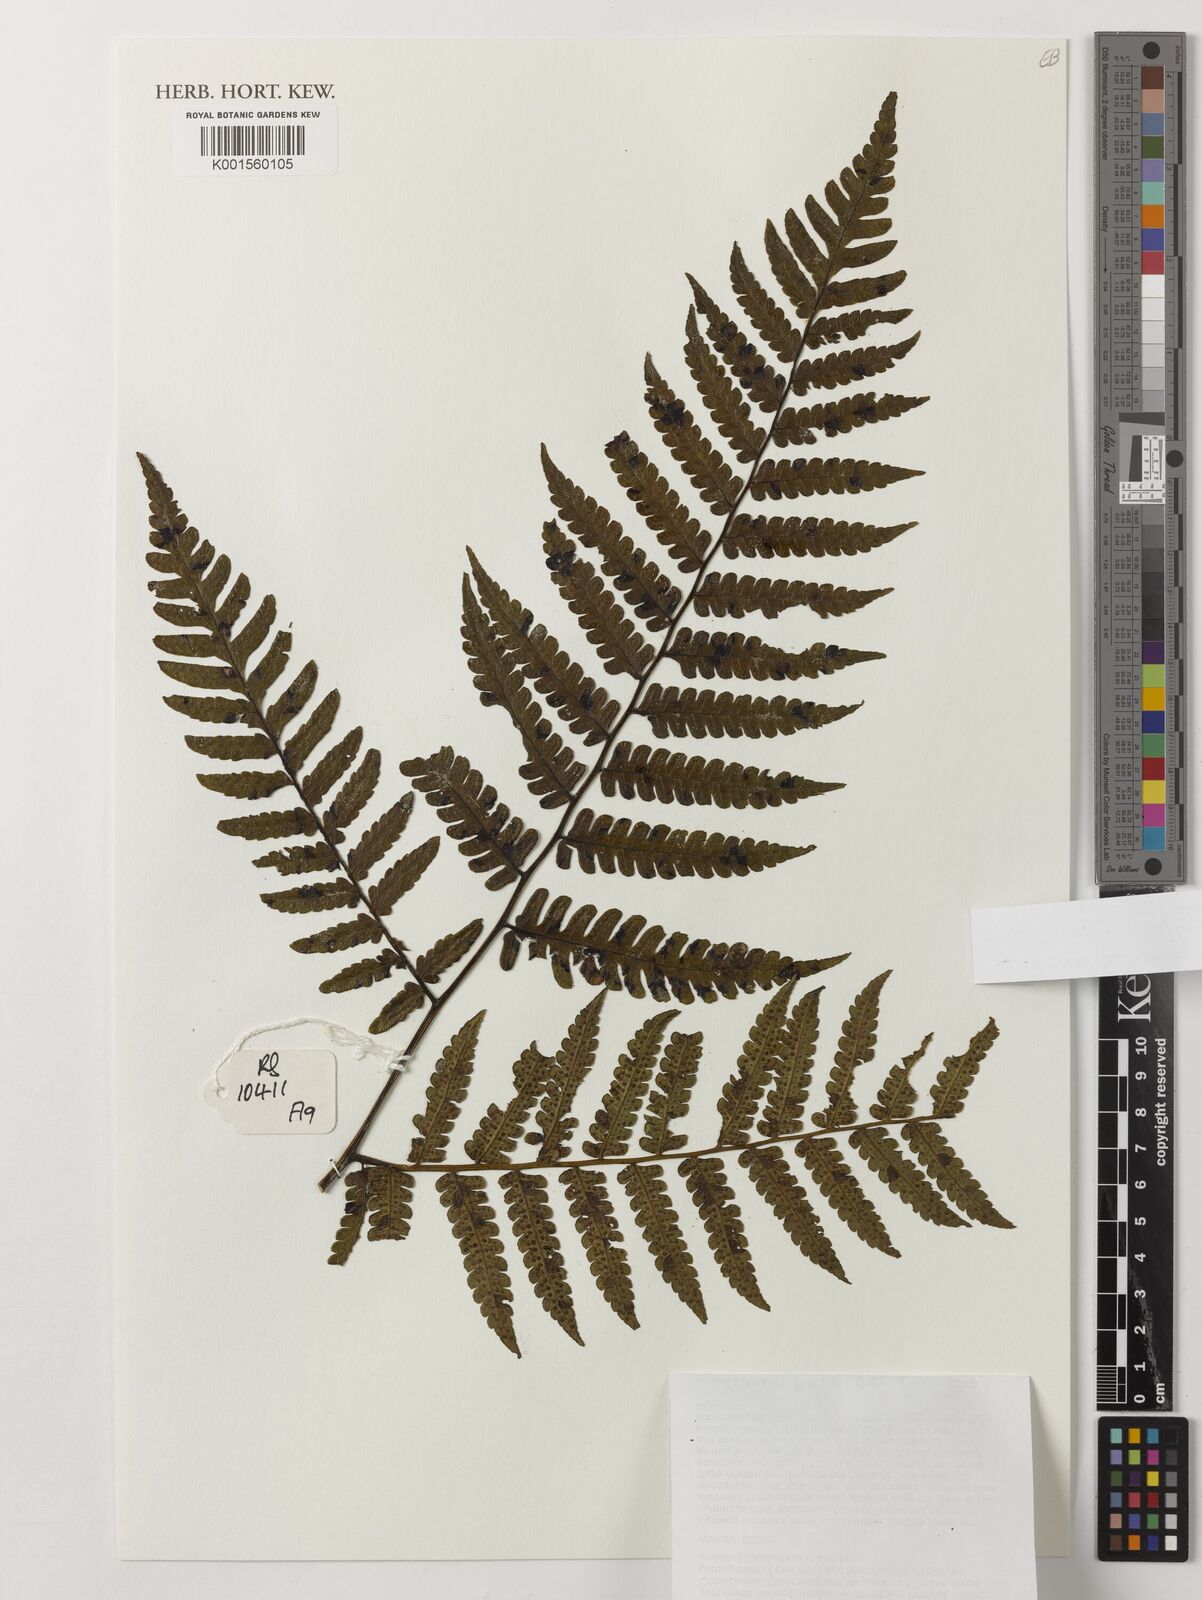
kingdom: Plantae
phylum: Tracheophyta
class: Polypodiopsida
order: Cyatheales
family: Cyatheaceae
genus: Sphaeropteris
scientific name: Sphaeropteris runensis
